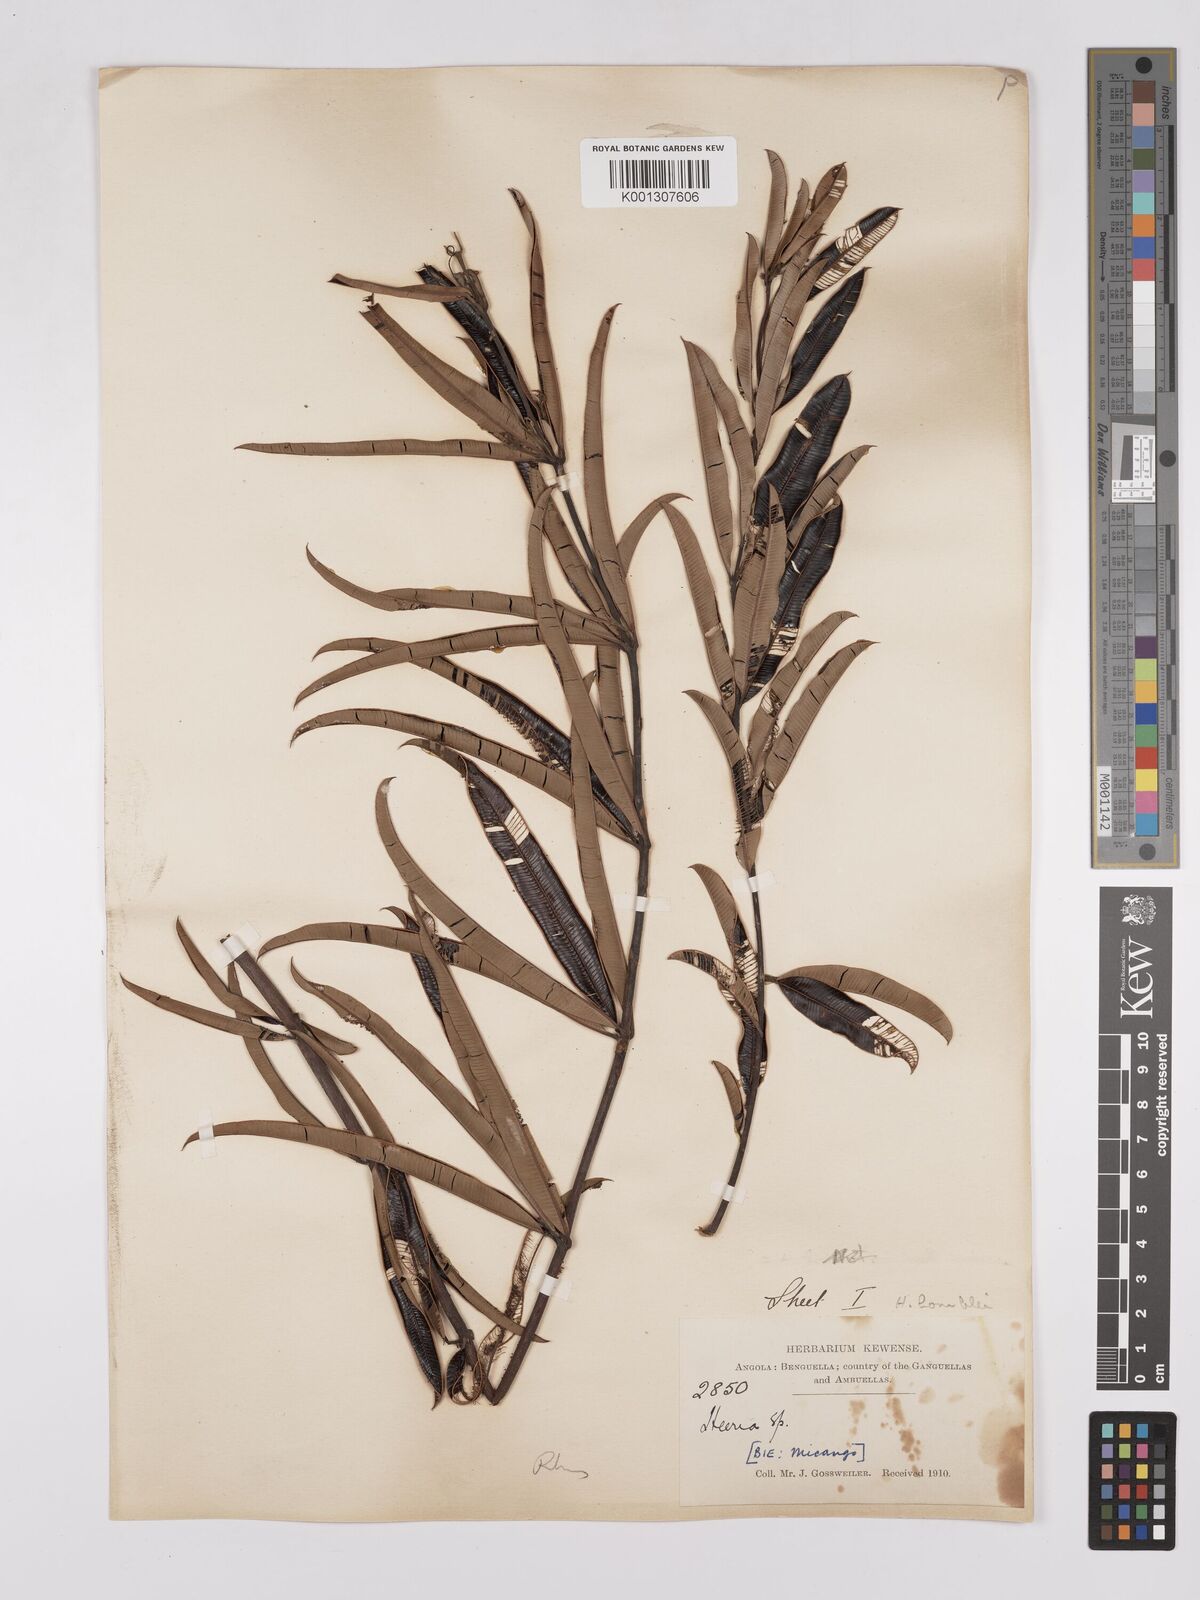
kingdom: Plantae
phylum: Tracheophyta
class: Magnoliopsida
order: Sapindales
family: Anacardiaceae
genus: Ozoroa
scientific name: Ozoroa homblei
